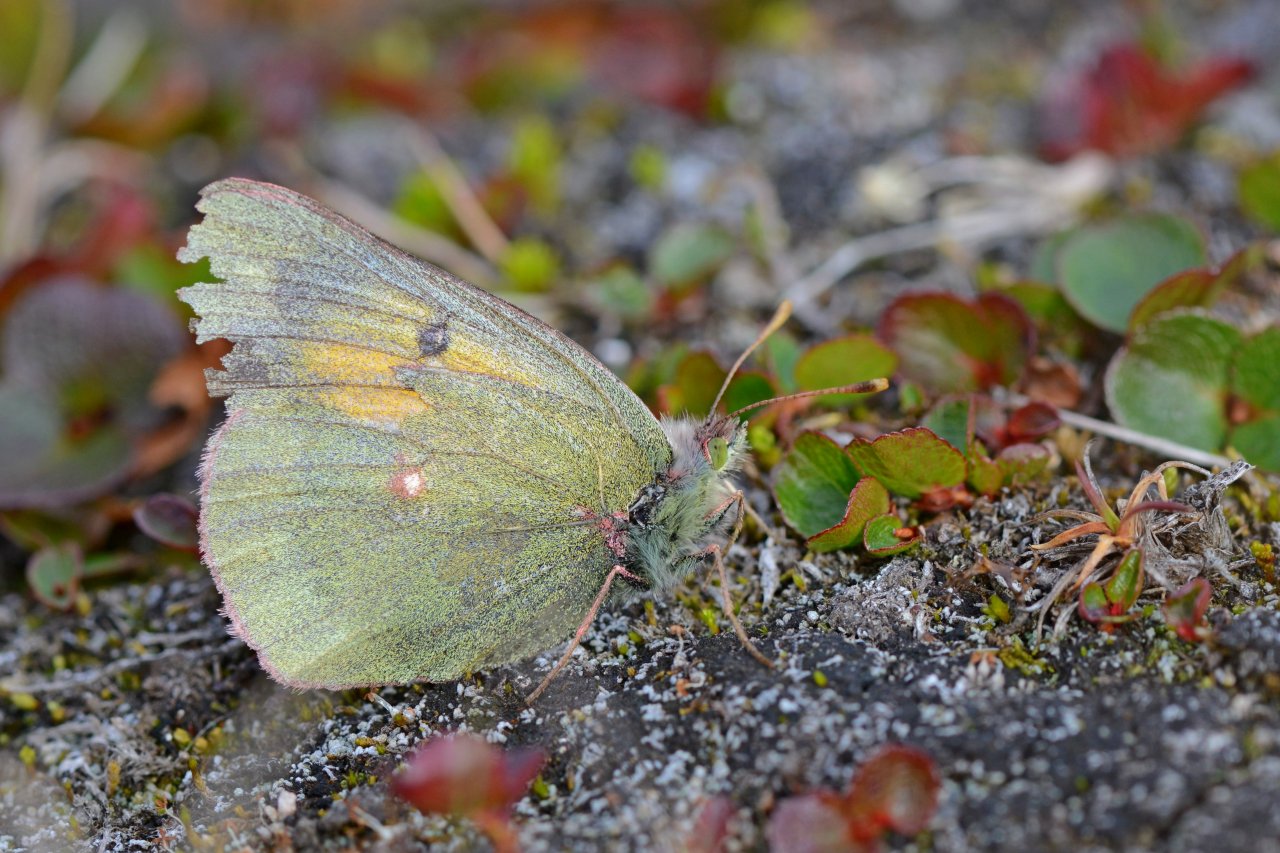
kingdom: Animalia
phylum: Arthropoda
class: Insecta
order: Lepidoptera
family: Pieridae
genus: Colias
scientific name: Colias hecla
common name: Hecla Sulphur
